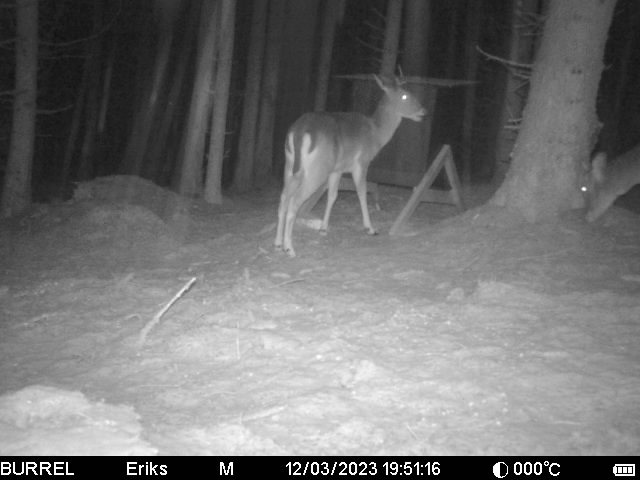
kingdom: Animalia
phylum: Chordata
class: Mammalia
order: Artiodactyla
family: Cervidae
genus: Dama
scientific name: Dama dama
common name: Dådyr
